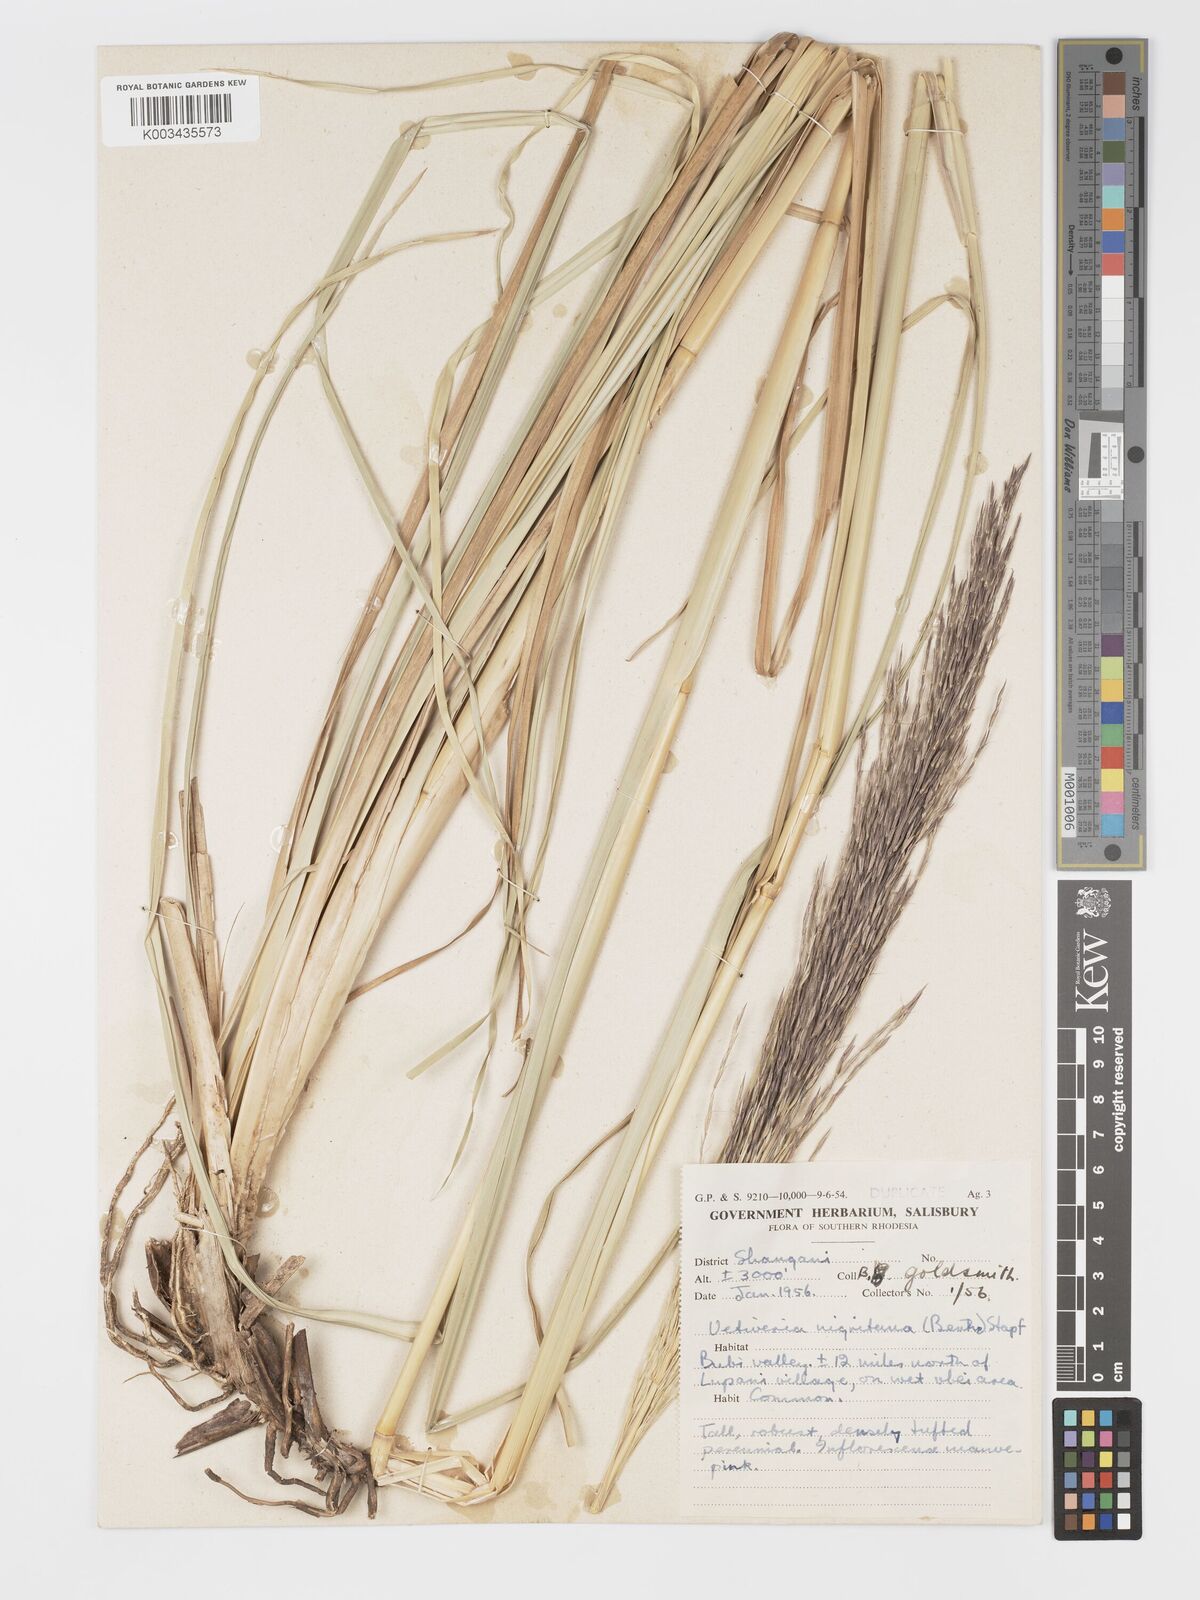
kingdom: Plantae
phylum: Tracheophyta
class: Liliopsida
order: Poales
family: Poaceae
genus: Chrysopogon
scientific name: Chrysopogon nigritanus
